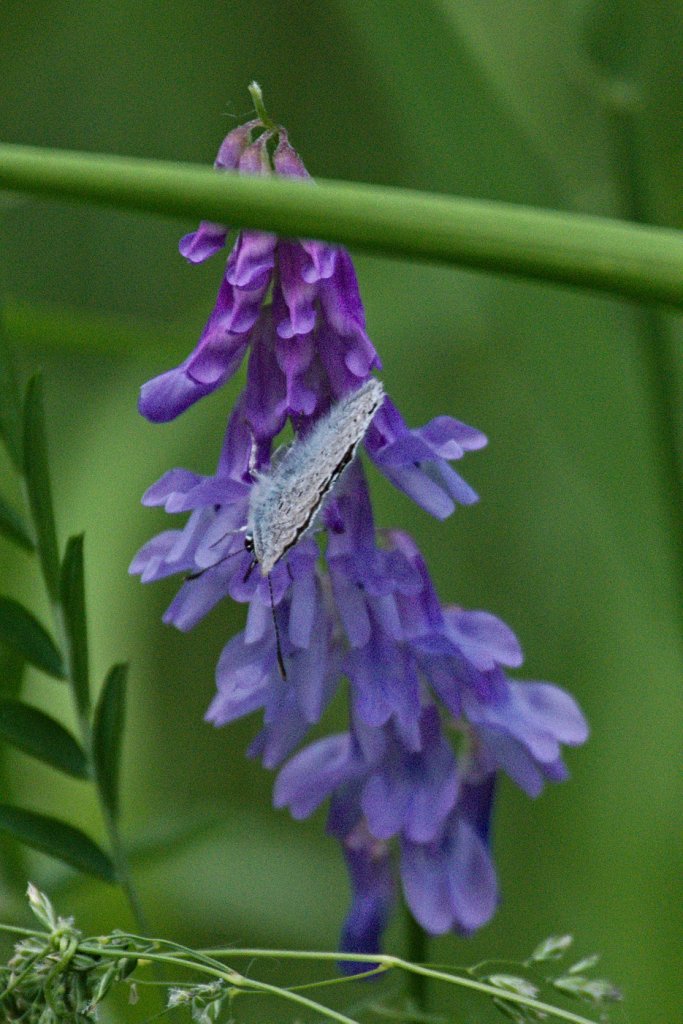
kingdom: Animalia
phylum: Arthropoda
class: Insecta
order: Lepidoptera
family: Lycaenidae
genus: Plebejus
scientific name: Plebejus saepiolus
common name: Greenish Blue
